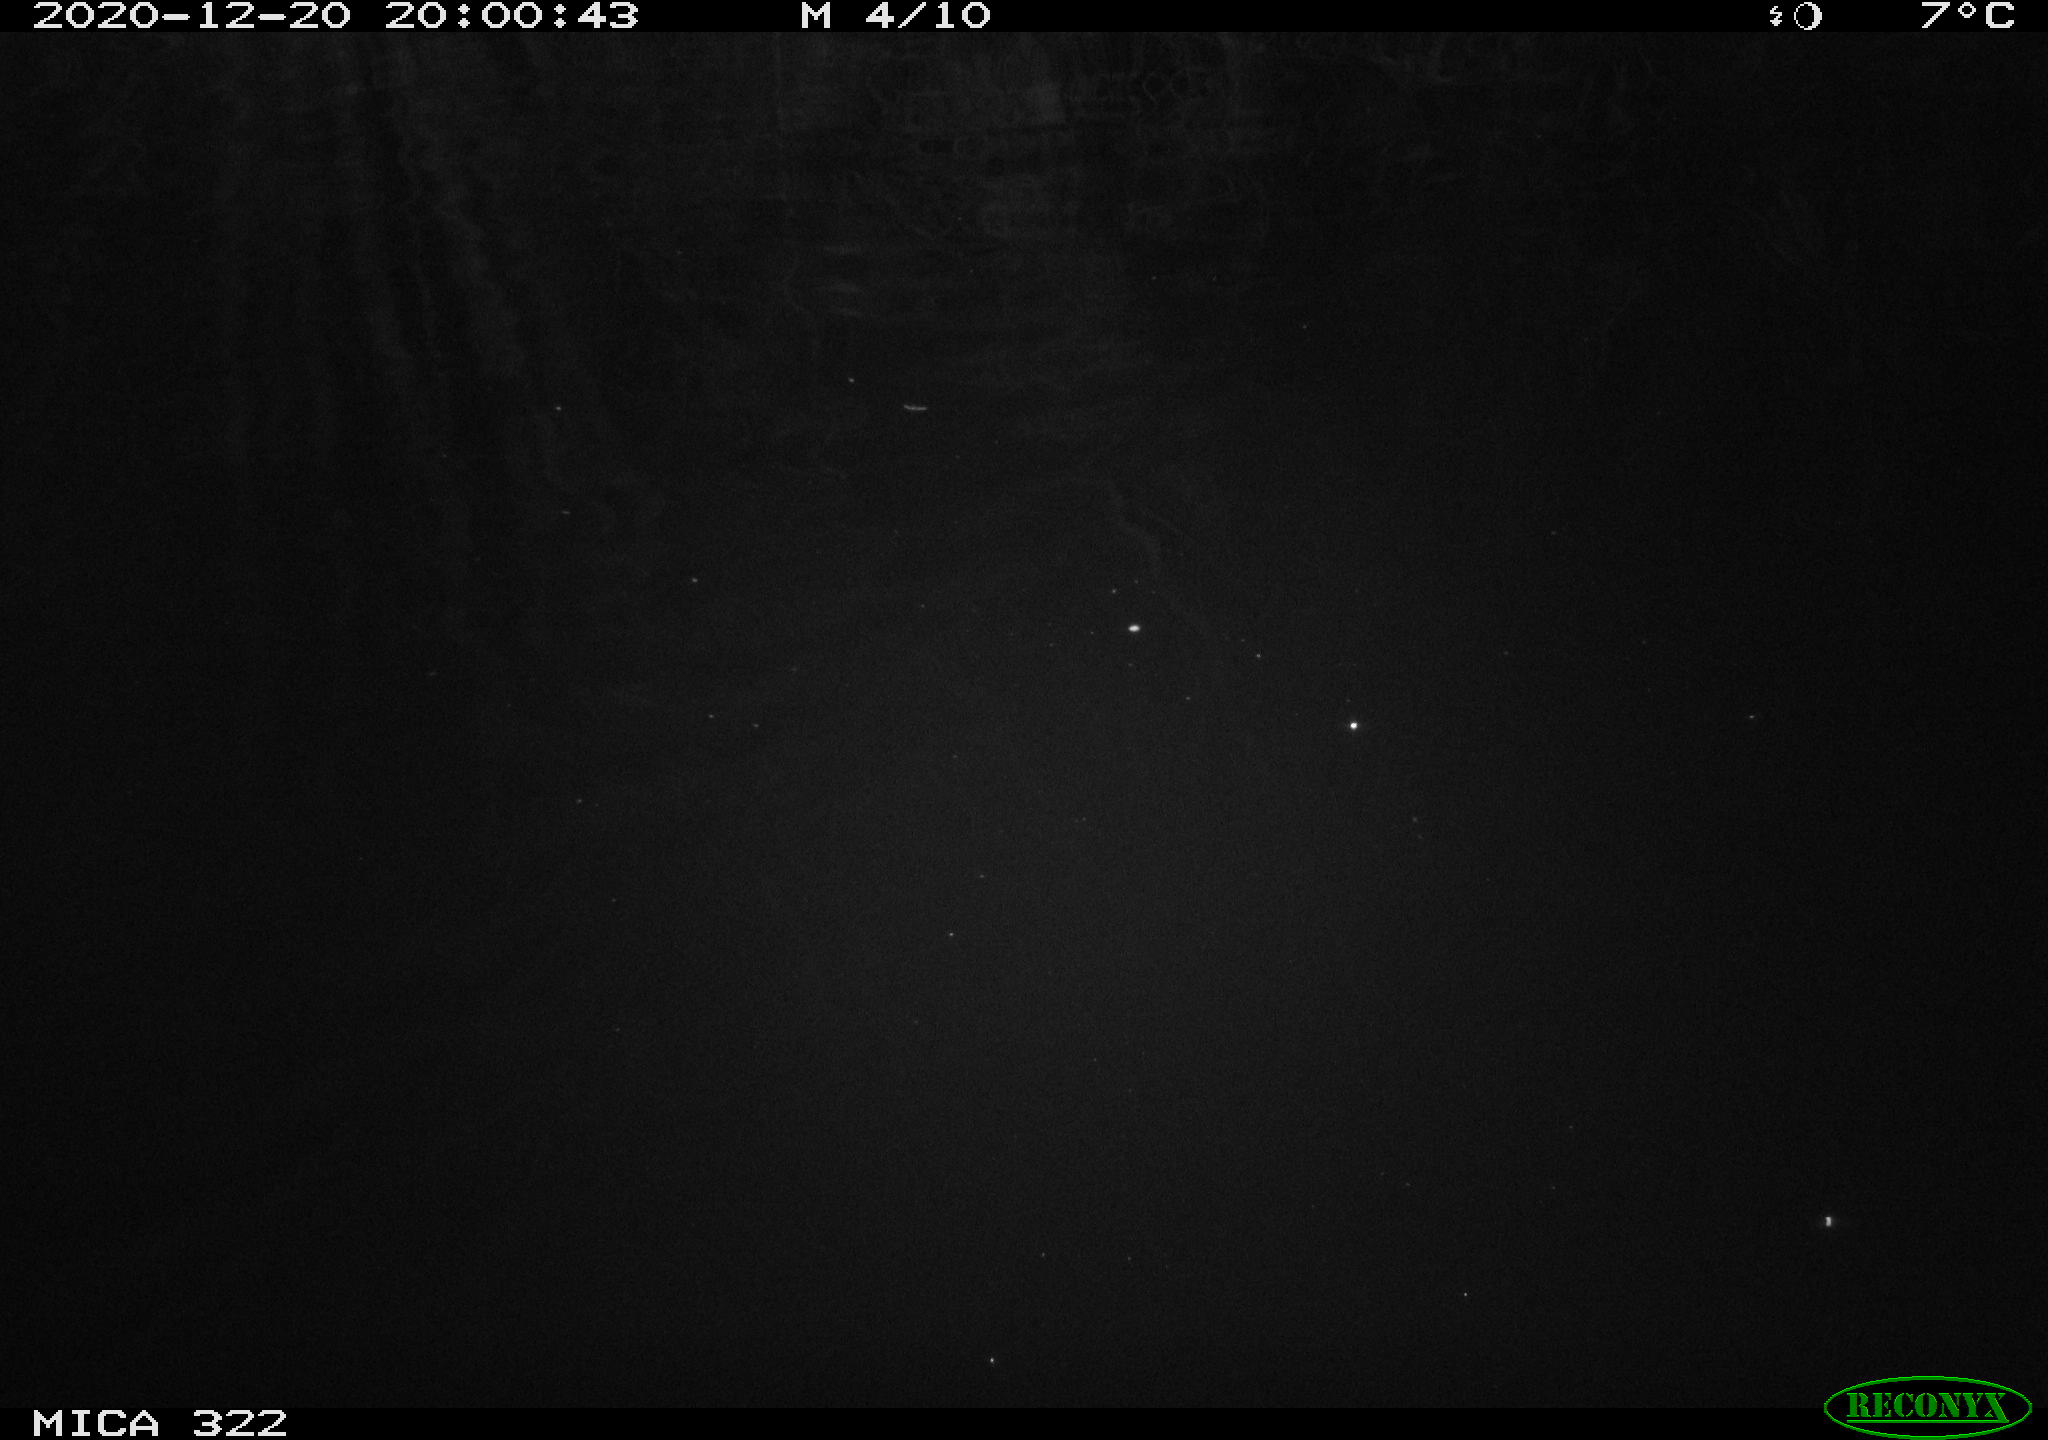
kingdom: Animalia
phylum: Chordata
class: Mammalia
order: Rodentia
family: Muridae
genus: Rattus
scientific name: Rattus norvegicus
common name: Brown rat
